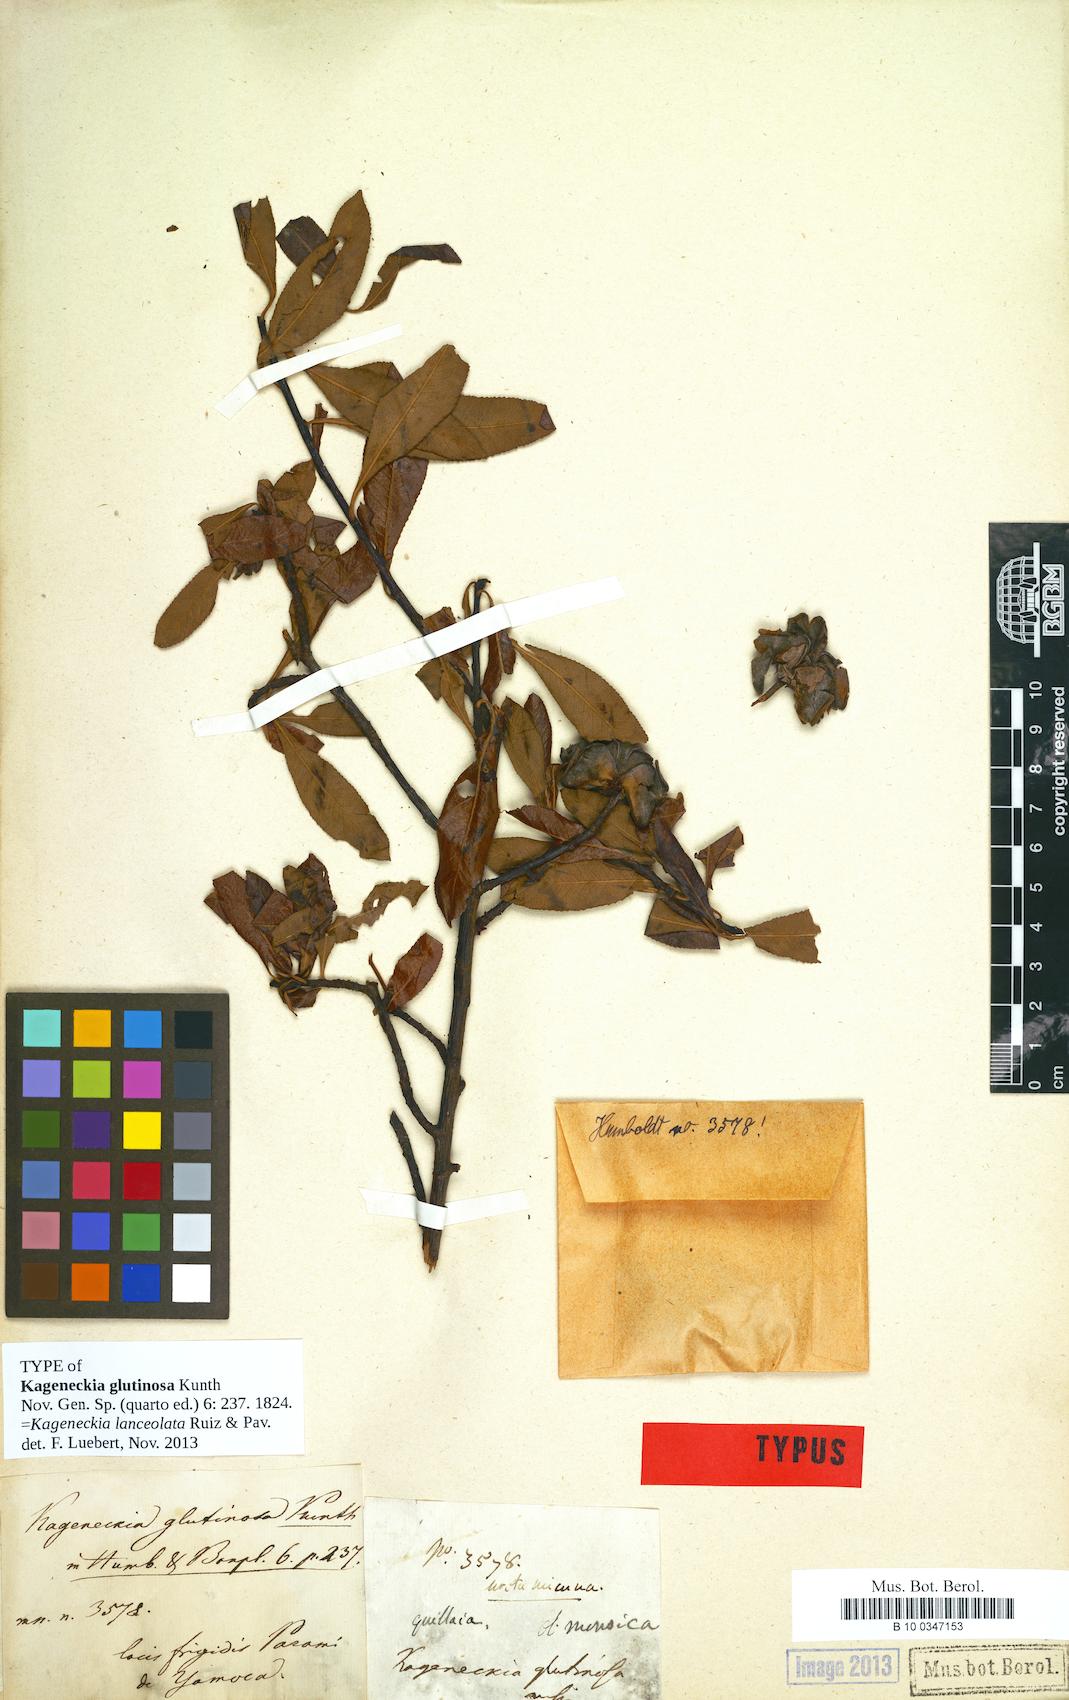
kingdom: Plantae
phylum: Tracheophyta
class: Magnoliopsida
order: Rosales
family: Rosaceae
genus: Kageneckia
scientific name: Kageneckia lanceolata
